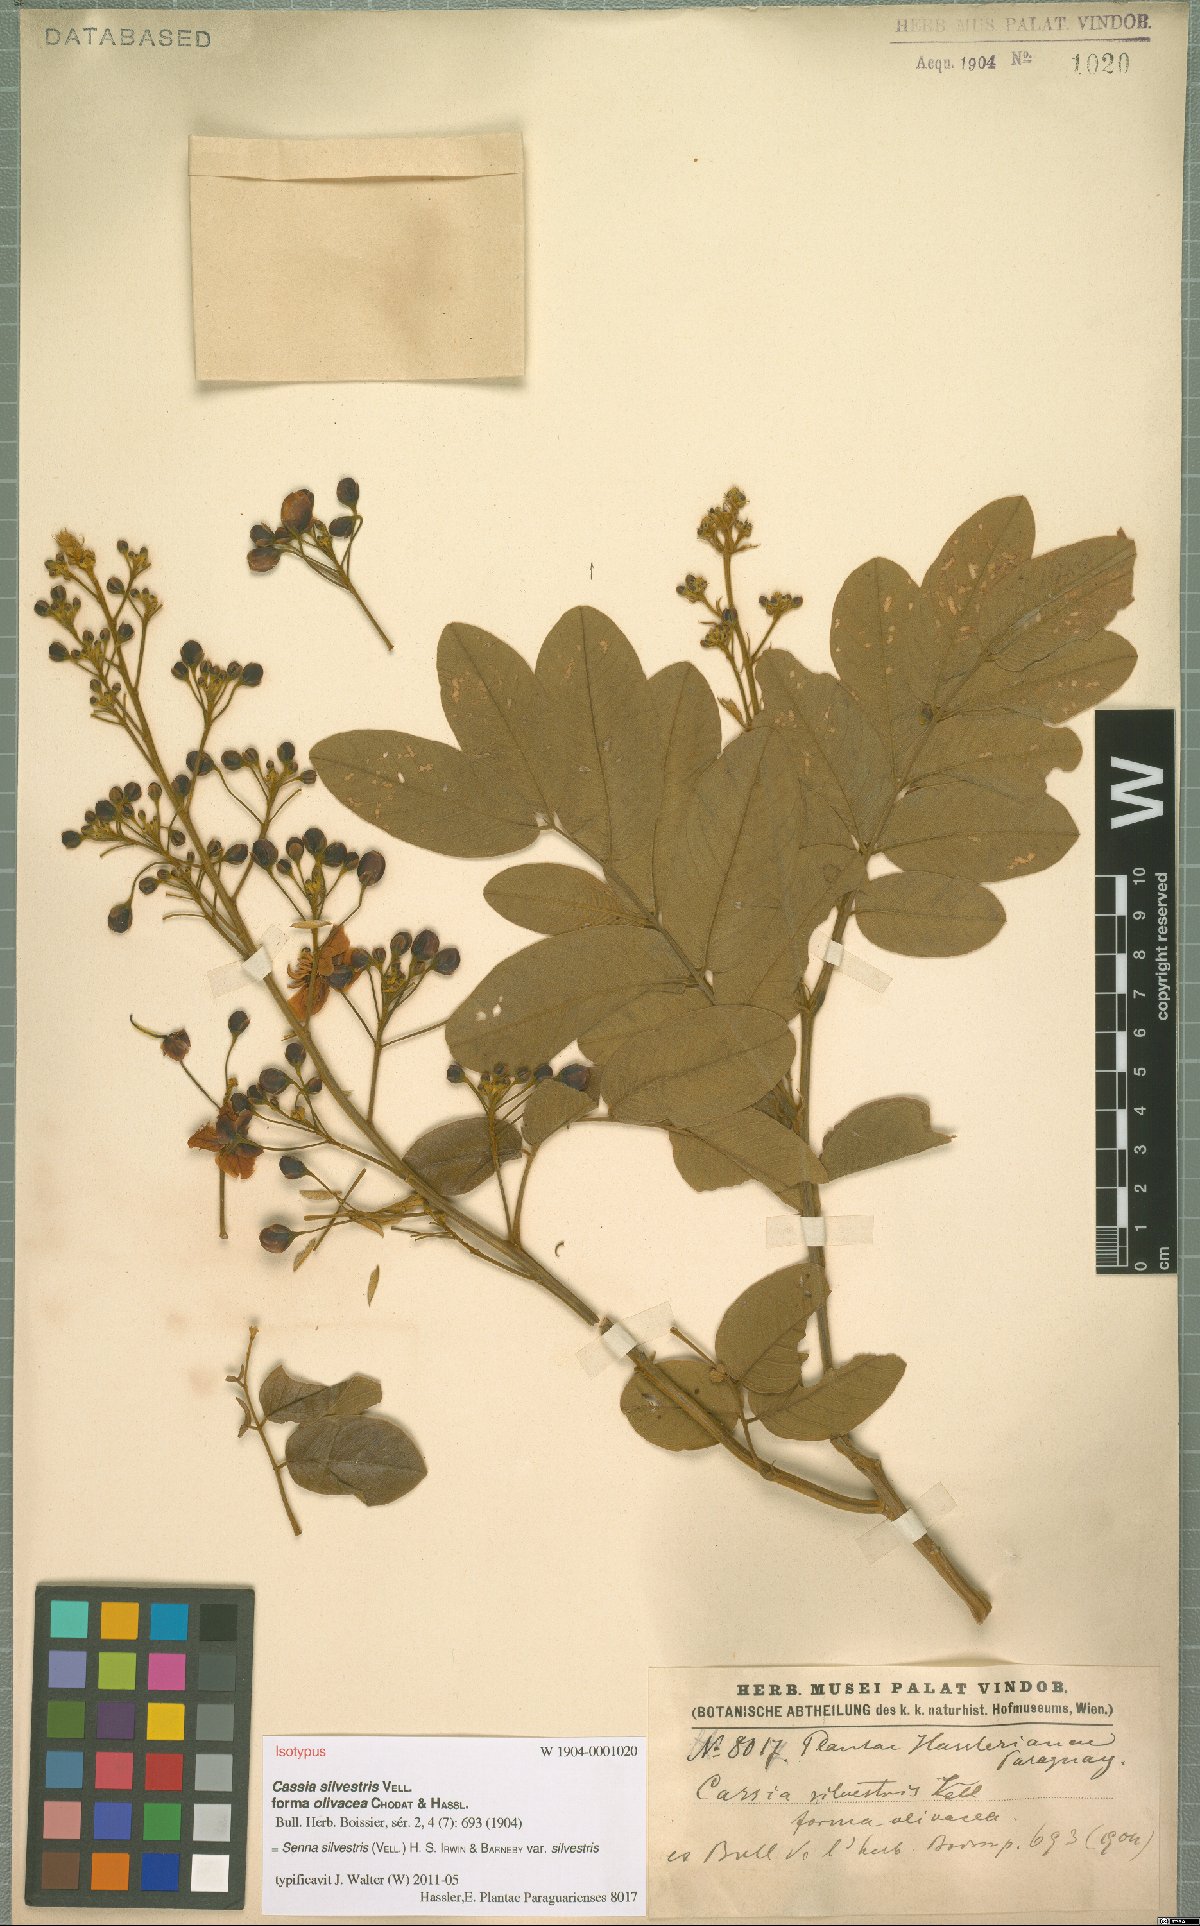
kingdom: Plantae
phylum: Tracheophyta
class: Magnoliopsida
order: Fabales
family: Fabaceae
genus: Senna
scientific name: Senna silvestris
